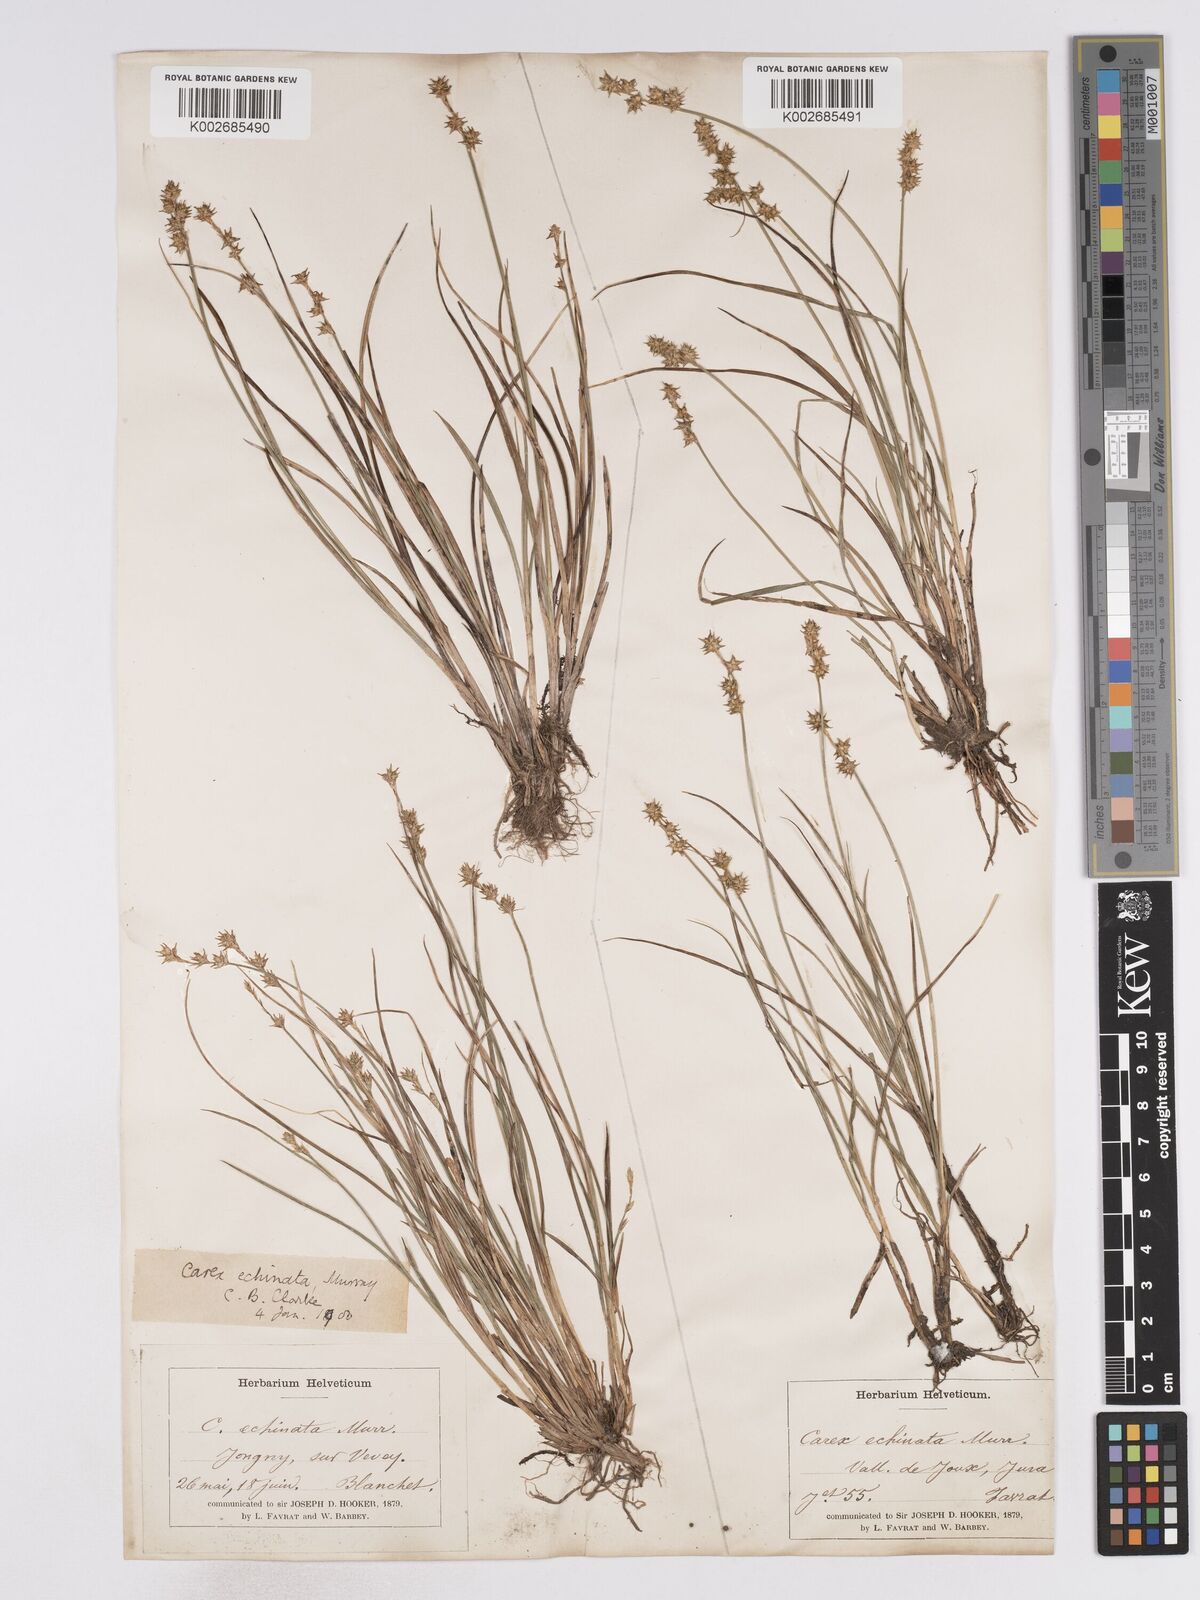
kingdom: Plantae
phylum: Tracheophyta
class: Liliopsida
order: Poales
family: Cyperaceae
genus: Carex
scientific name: Carex echinata
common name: Star sedge
